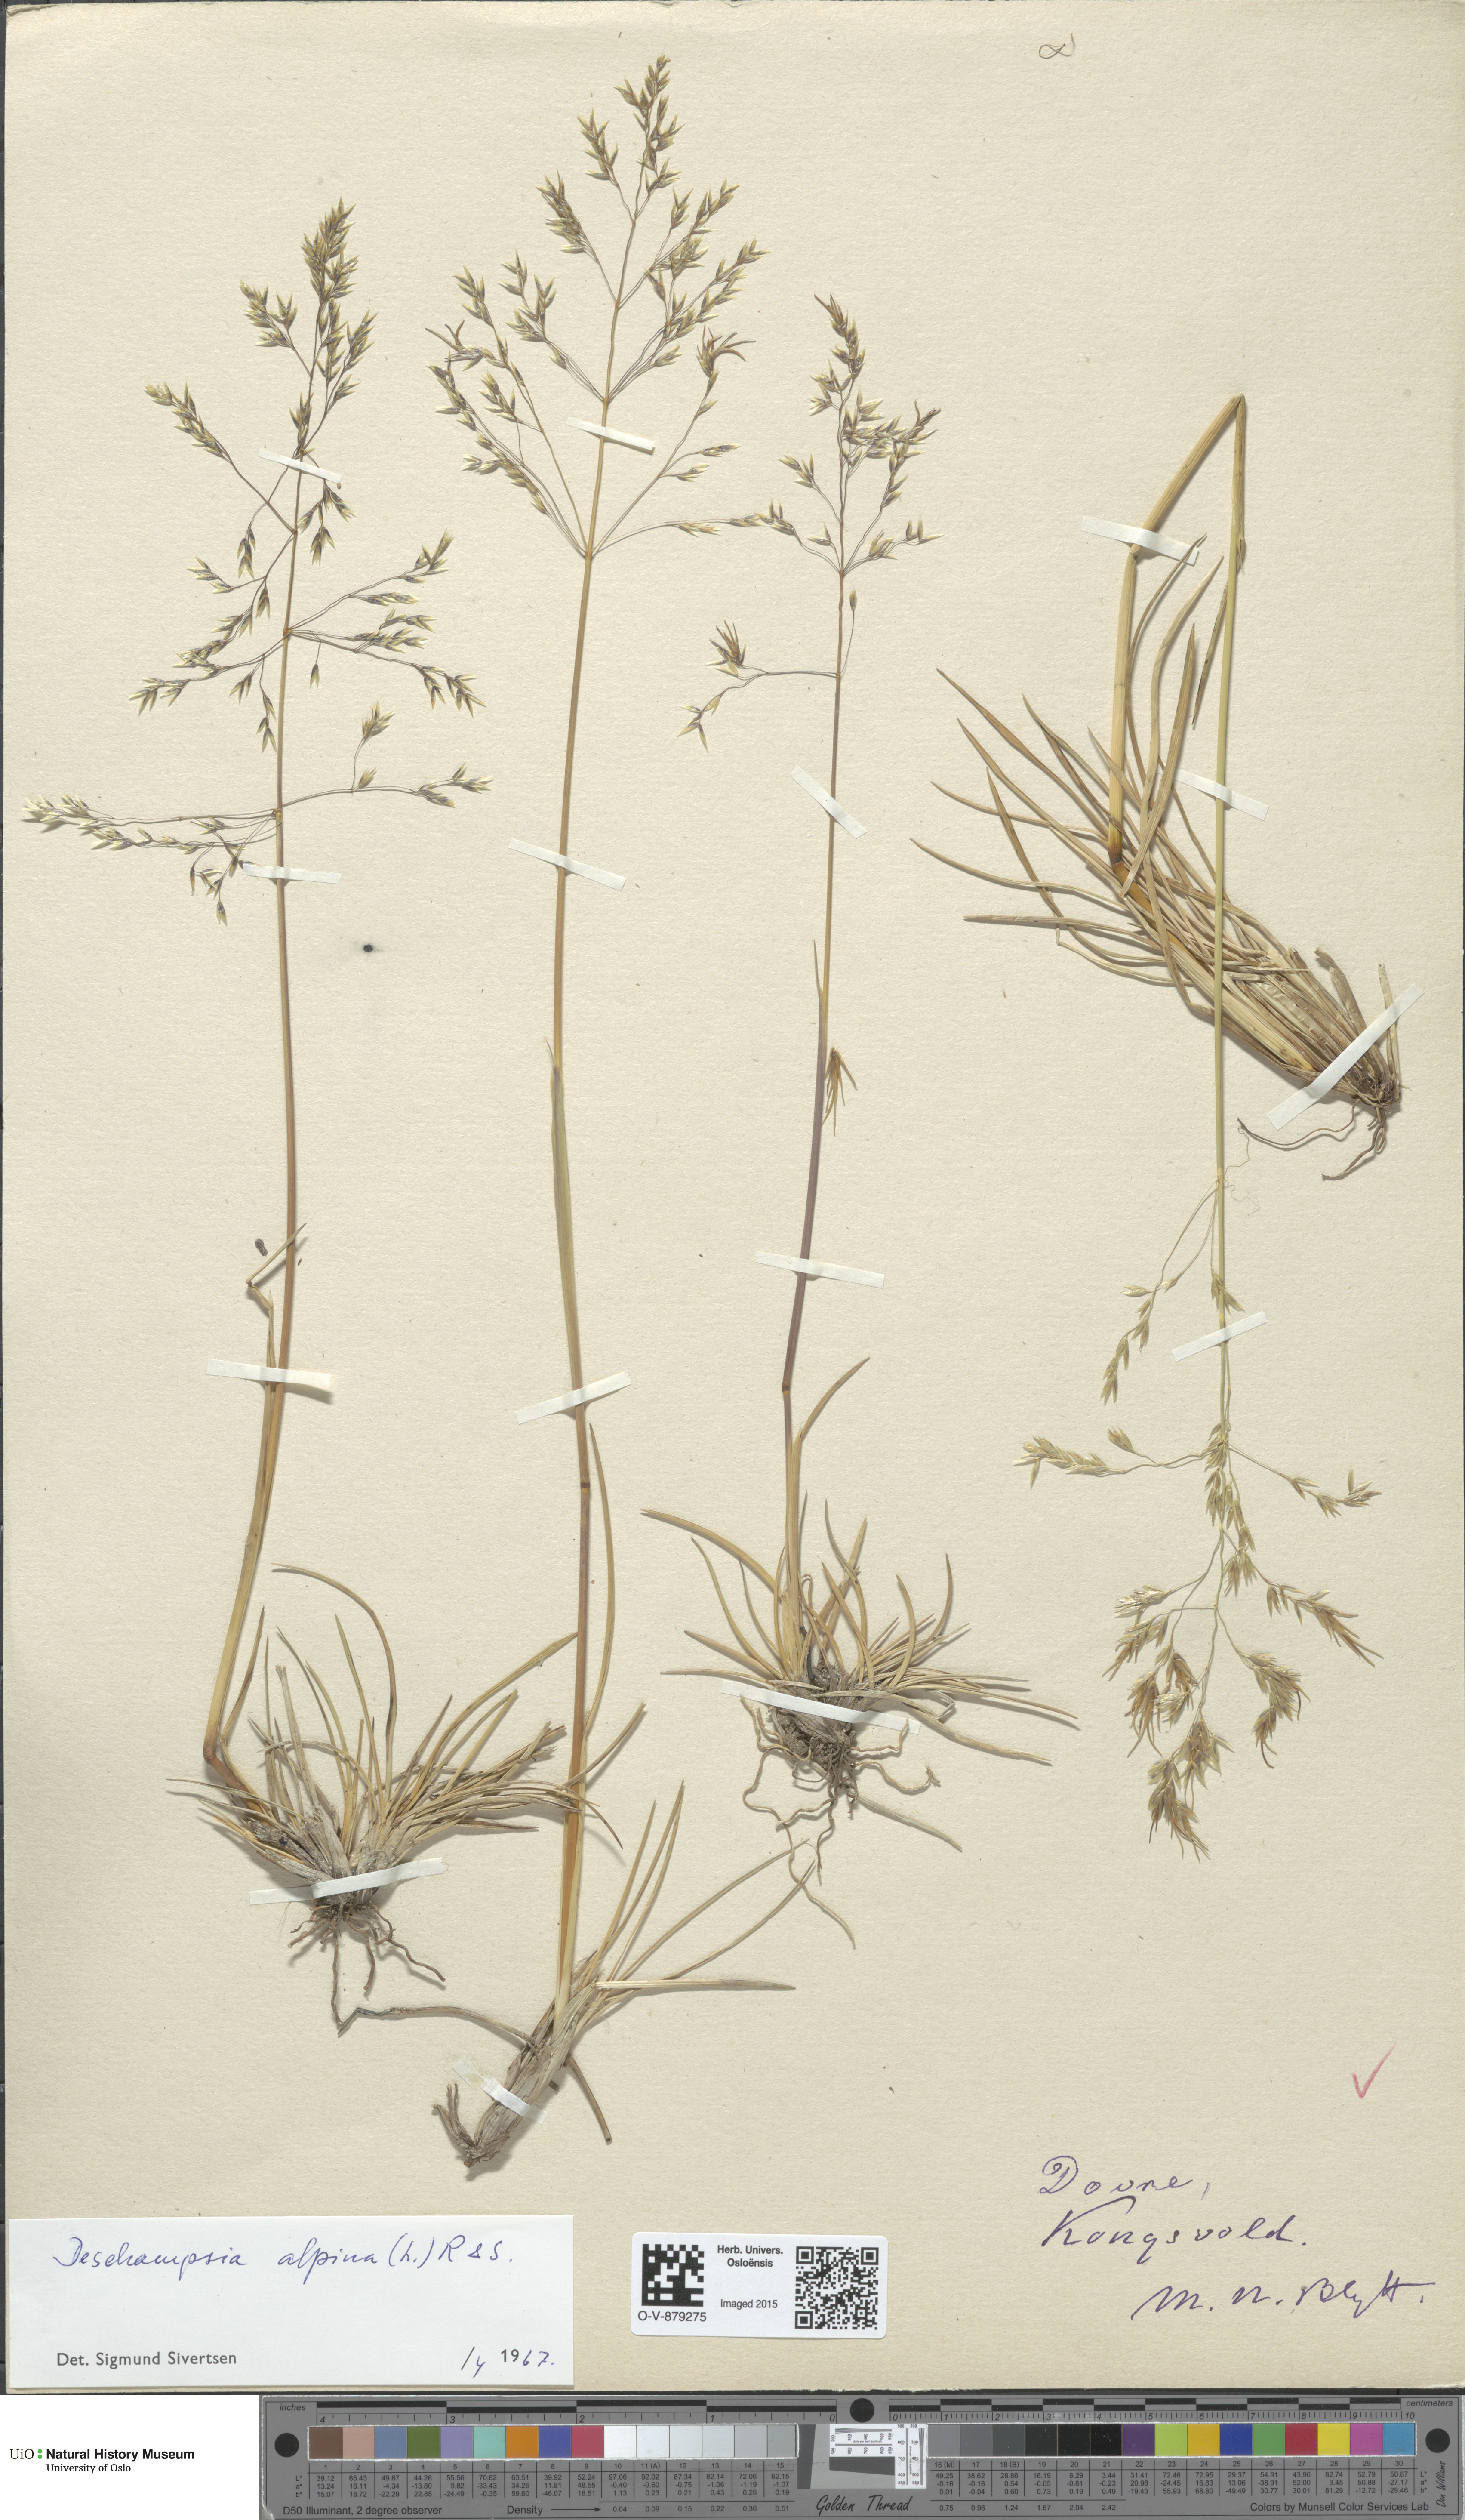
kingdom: Plantae
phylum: Tracheophyta
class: Liliopsida
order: Poales
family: Poaceae
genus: Deschampsia
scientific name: Deschampsia cespitosa
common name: Tufted hair-grass
